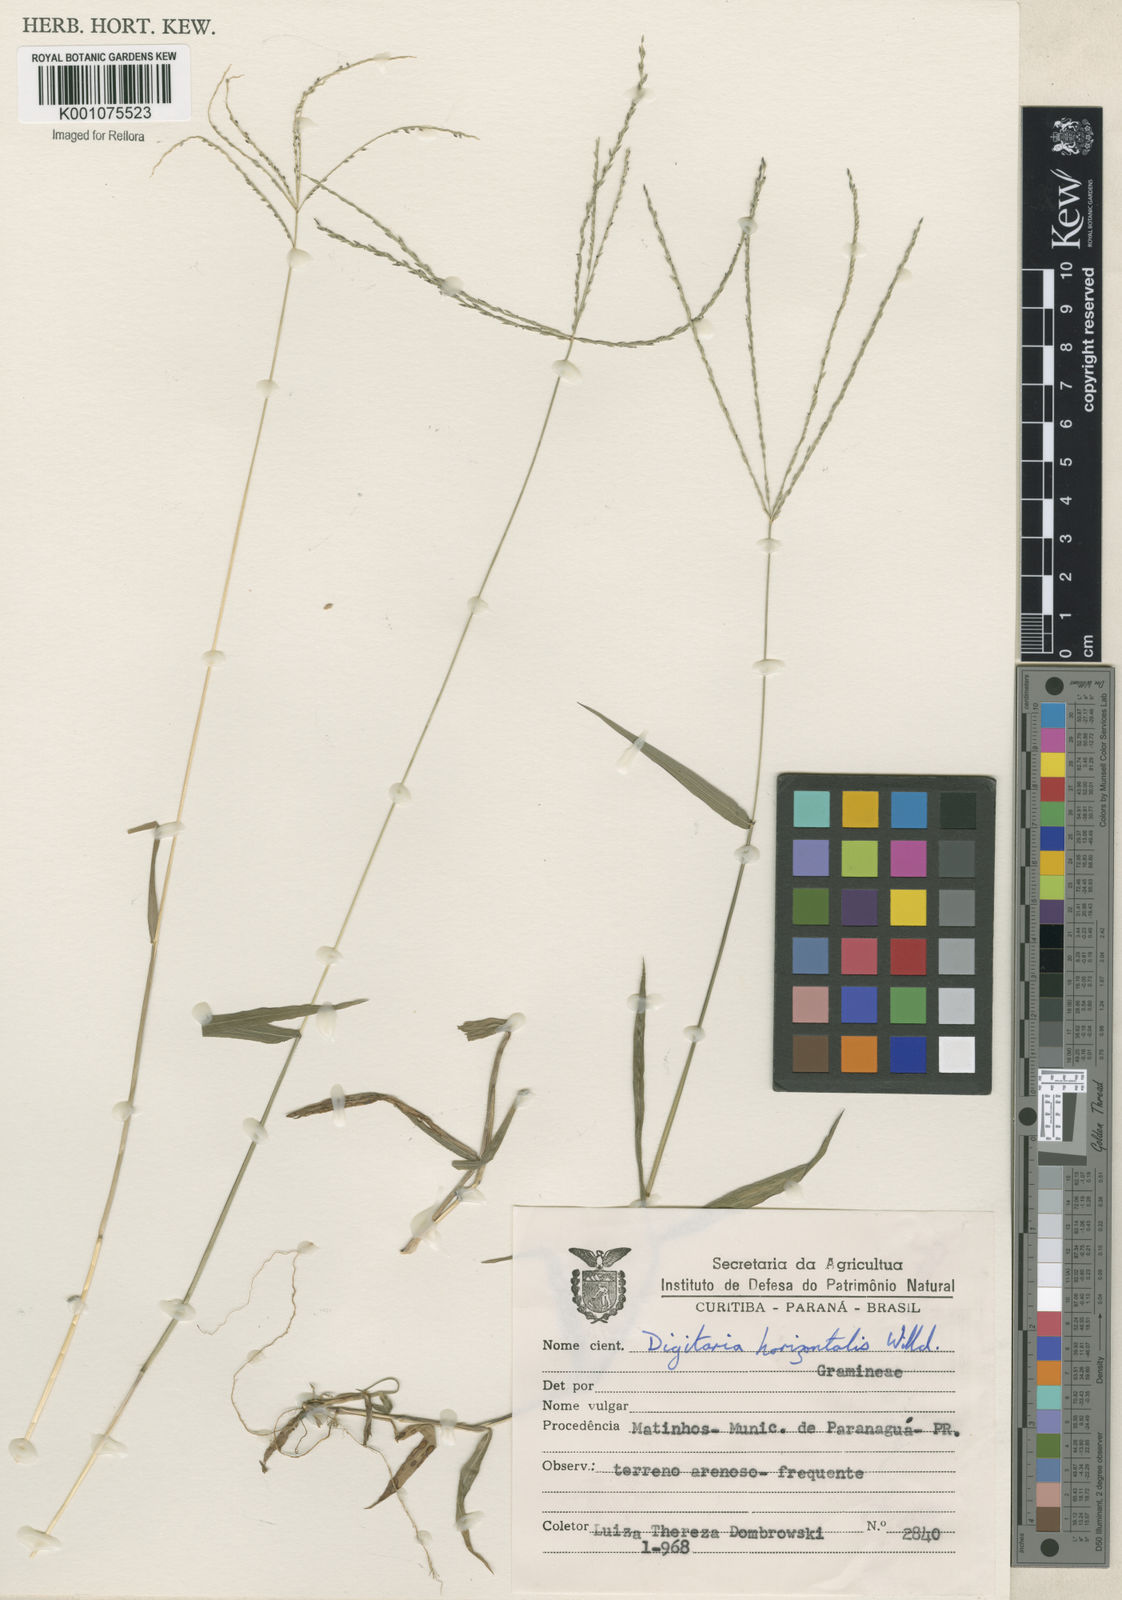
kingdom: Plantae
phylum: Tracheophyta
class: Liliopsida
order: Poales
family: Poaceae
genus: Digitaria
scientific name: Digitaria horizontalis
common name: Jamaican crabgrass
